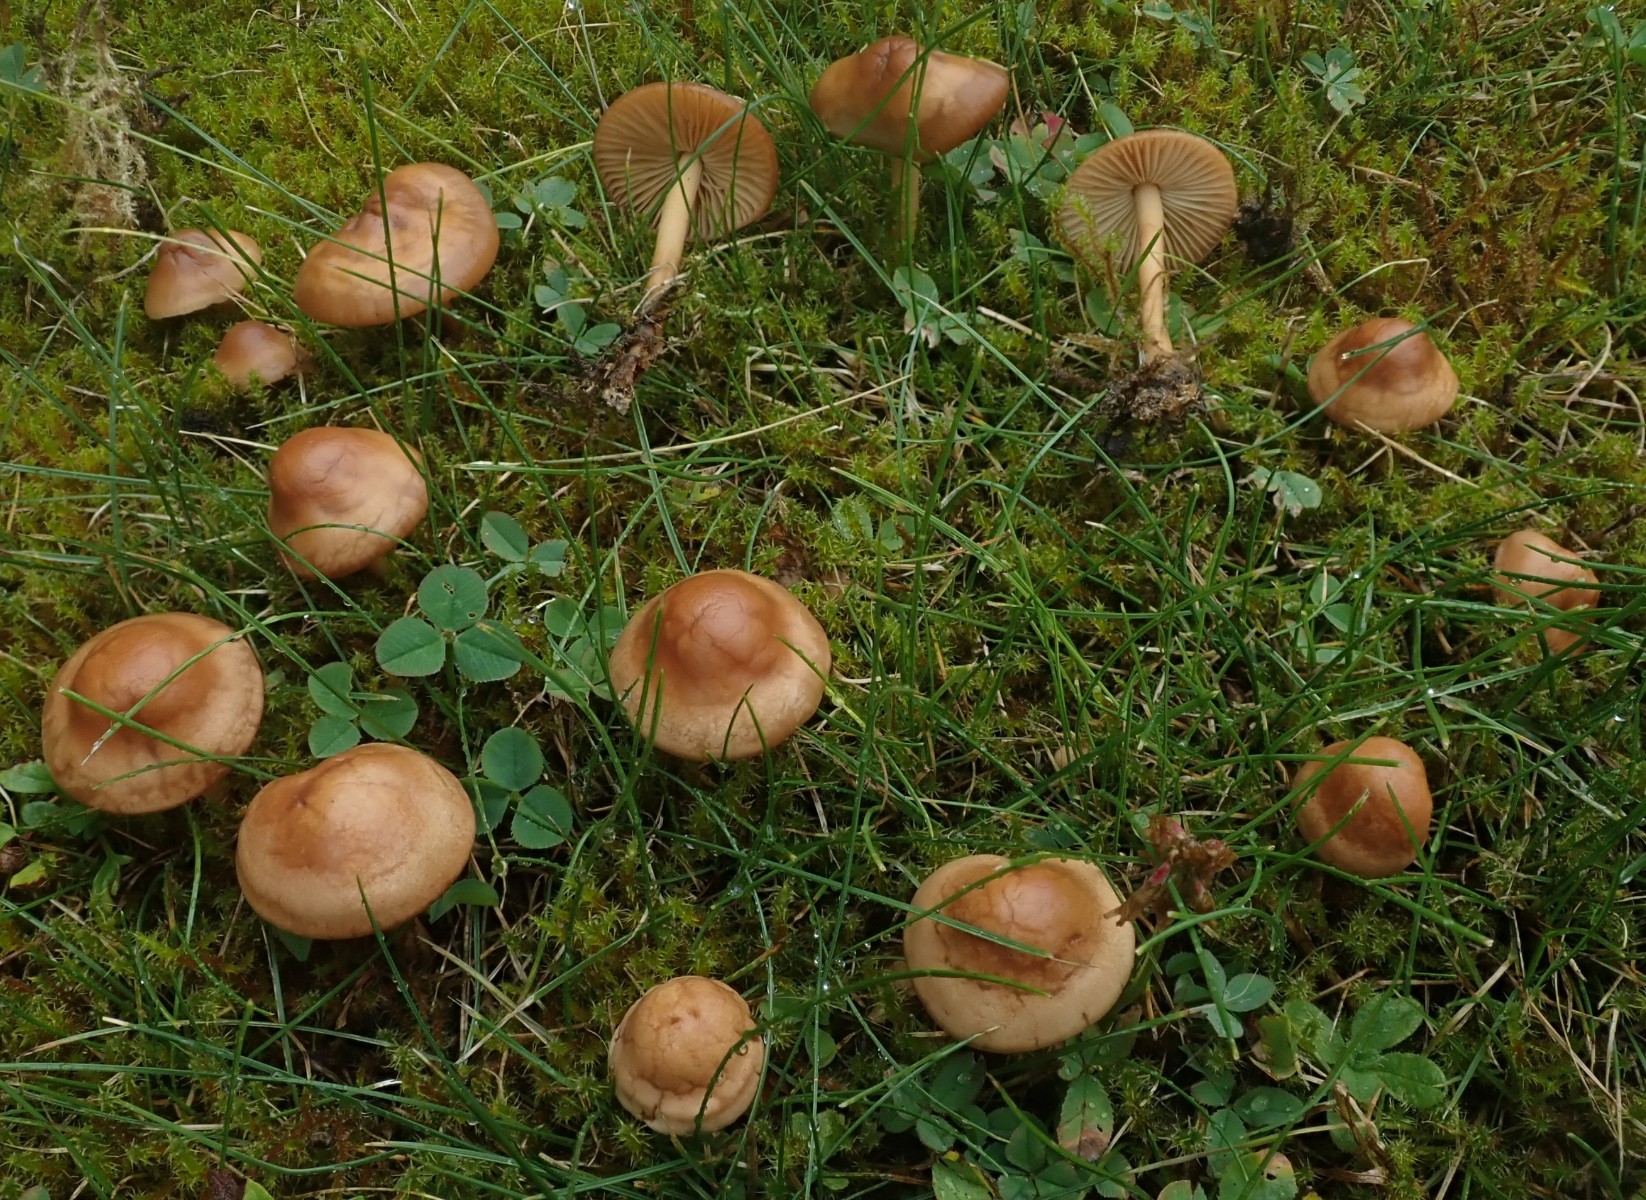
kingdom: Fungi
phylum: Basidiomycota
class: Agaricomycetes
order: Agaricales
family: Marasmiaceae
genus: Marasmius
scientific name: Marasmius oreades
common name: elledans-bruskhat
